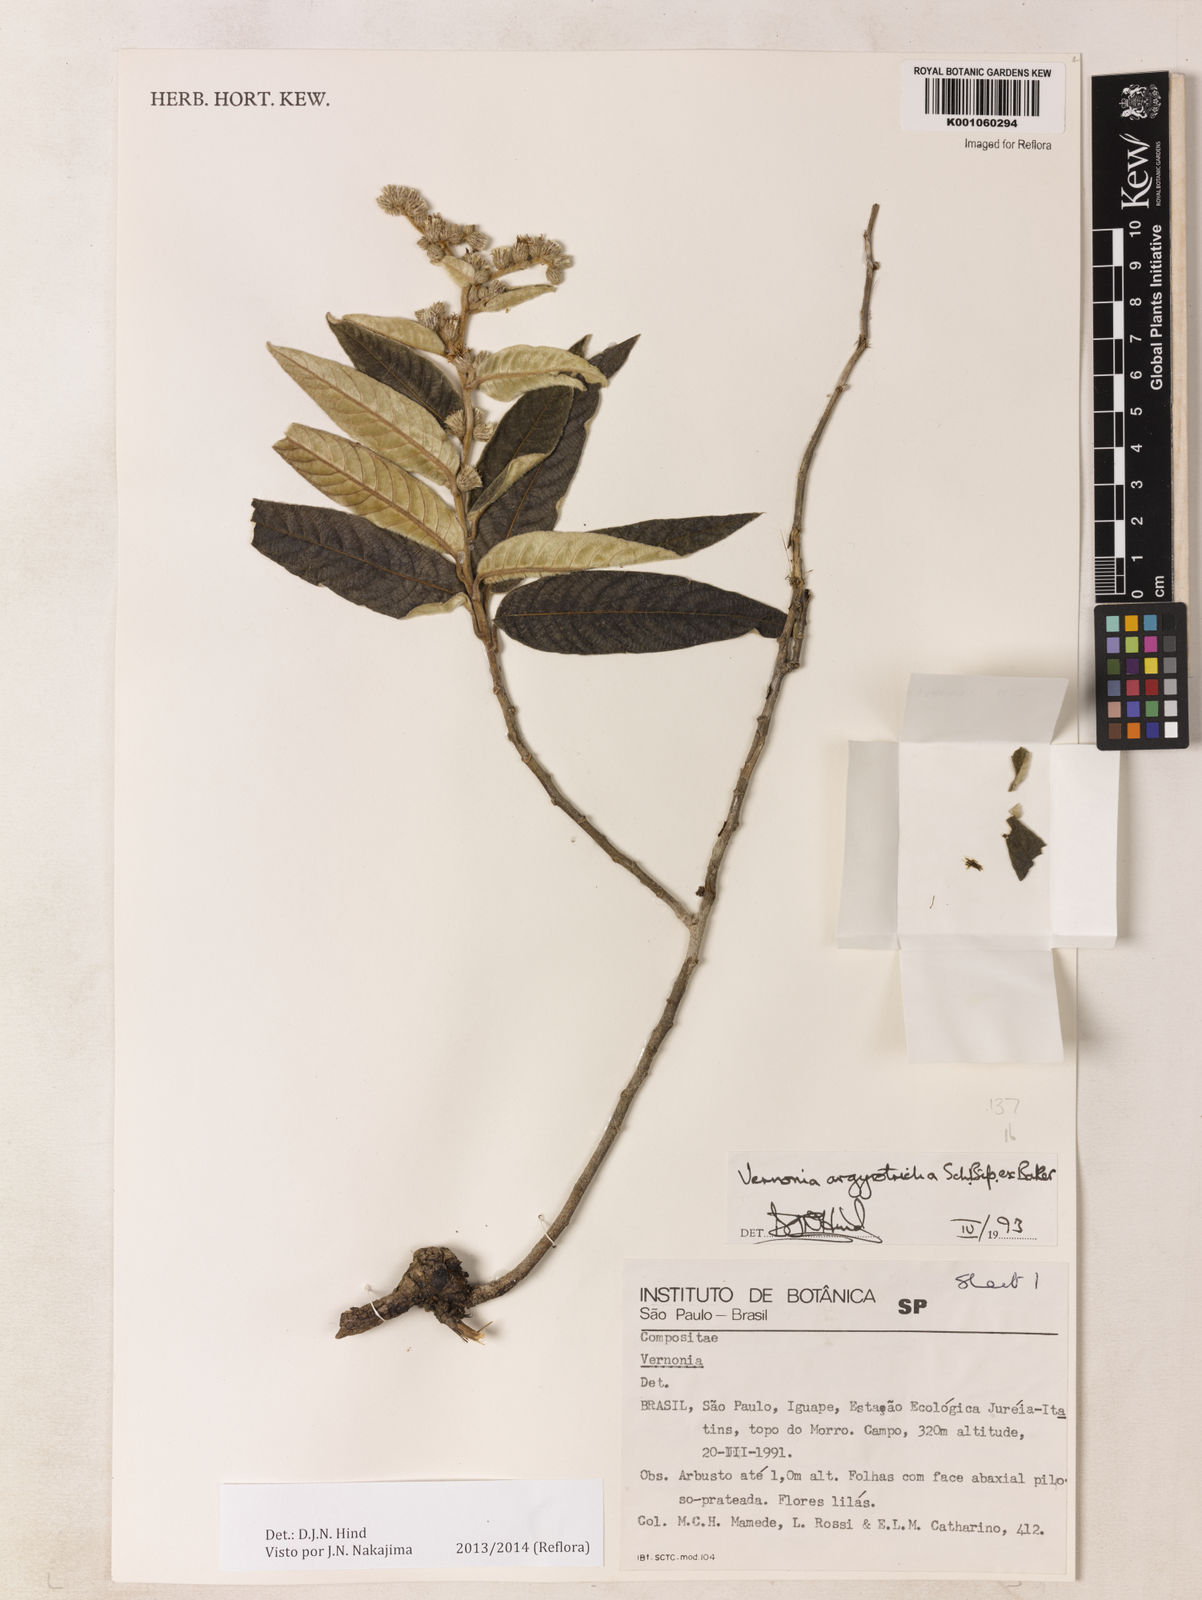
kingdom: Plantae
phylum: Tracheophyta
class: Magnoliopsida
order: Asterales
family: Asteraceae
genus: Lepidaploa
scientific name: Lepidaploa argyrotricha
